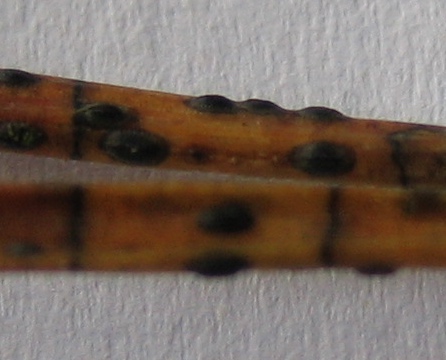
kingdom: Fungi
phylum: Ascomycota
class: Leotiomycetes
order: Rhytismatales
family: Rhytismataceae
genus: Lophodermium
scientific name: Lophodermium pinastri
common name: fyrre-fureplet
